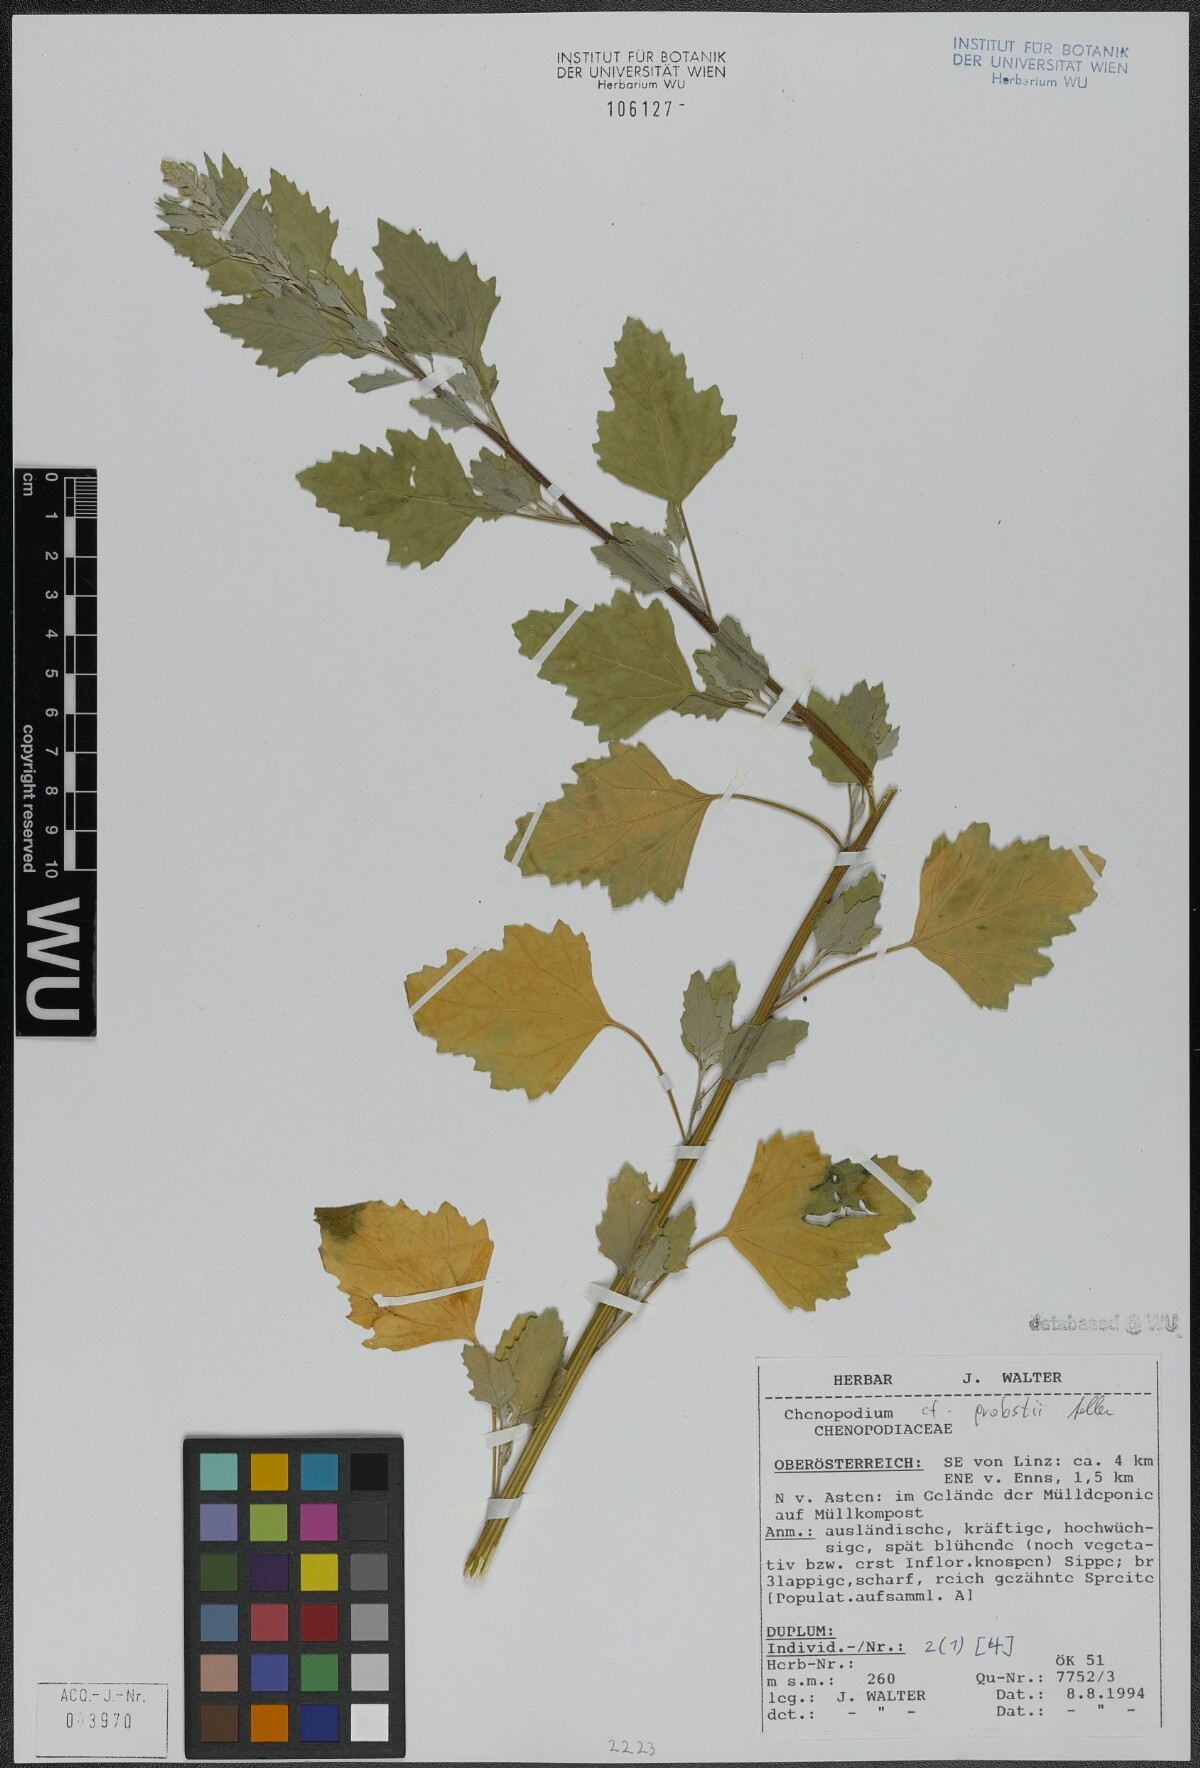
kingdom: Plantae
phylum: Tracheophyta
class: Magnoliopsida
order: Caryophyllales
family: Amaranthaceae
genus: Chenopodium
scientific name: Chenopodium probstii
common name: Probst's goosefoot
